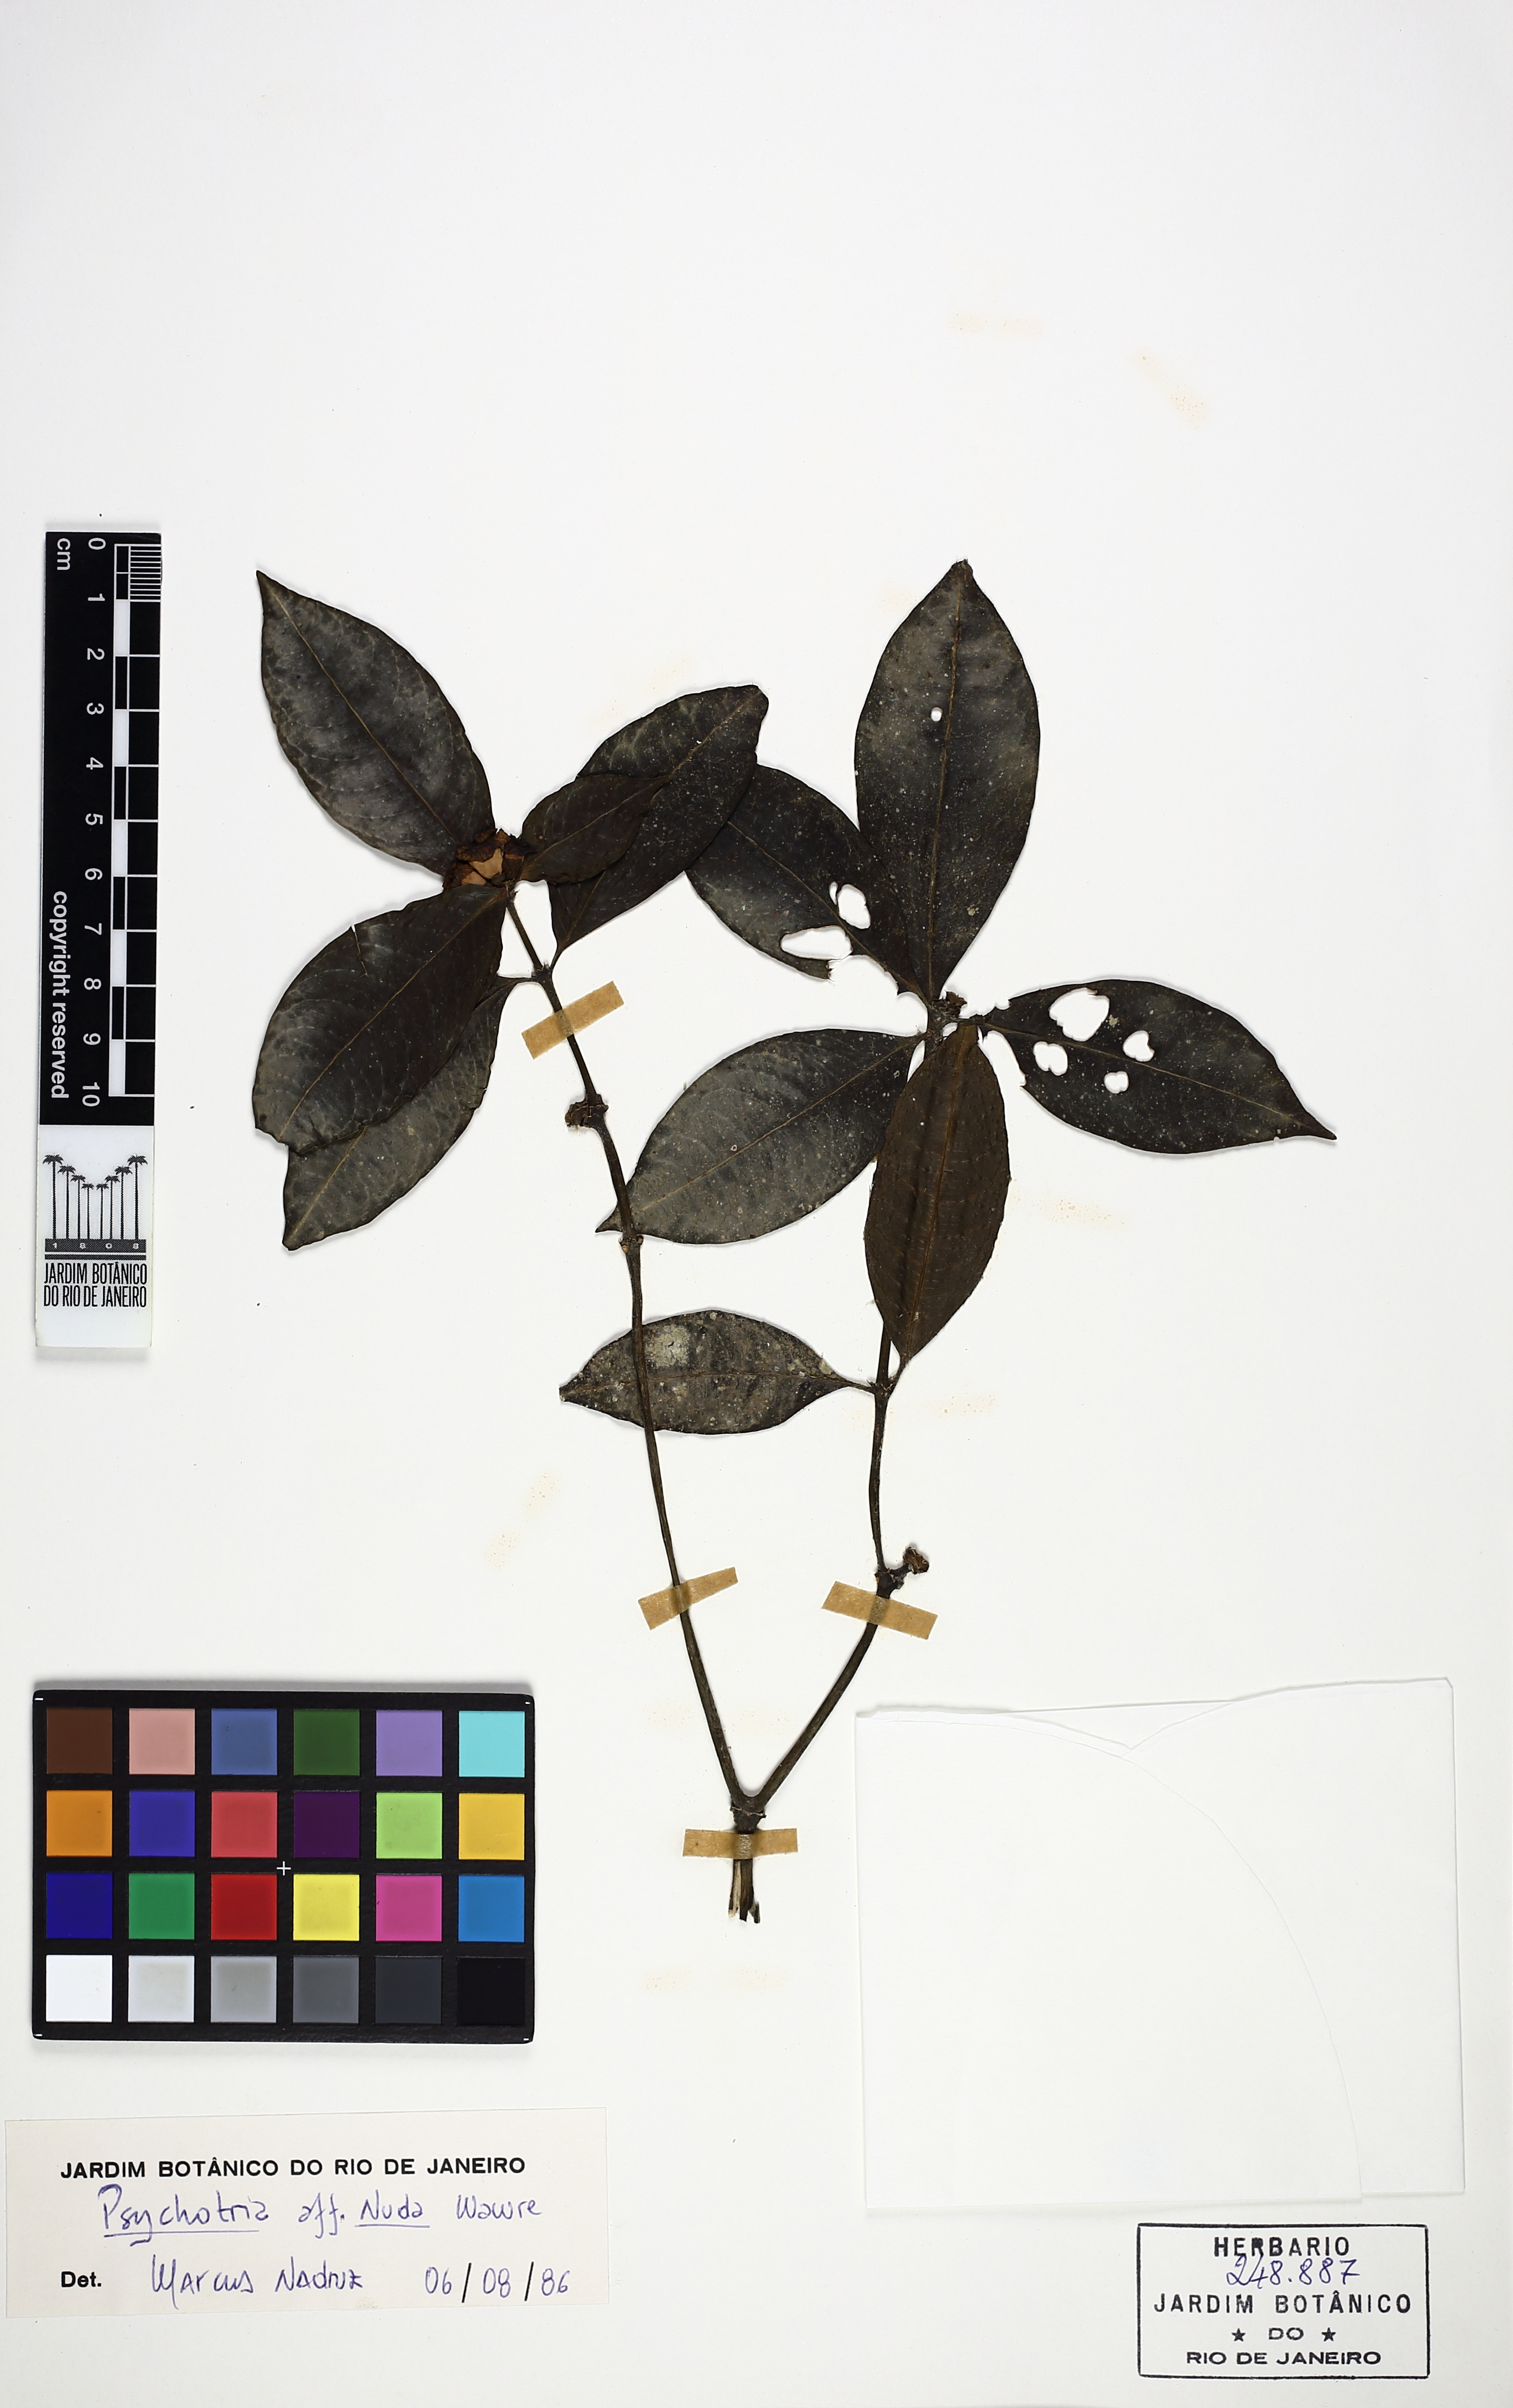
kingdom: Plantae
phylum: Tracheophyta
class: Magnoliopsida
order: Gentianales
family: Rubiaceae
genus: Psychotria
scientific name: Psychotria nuda
